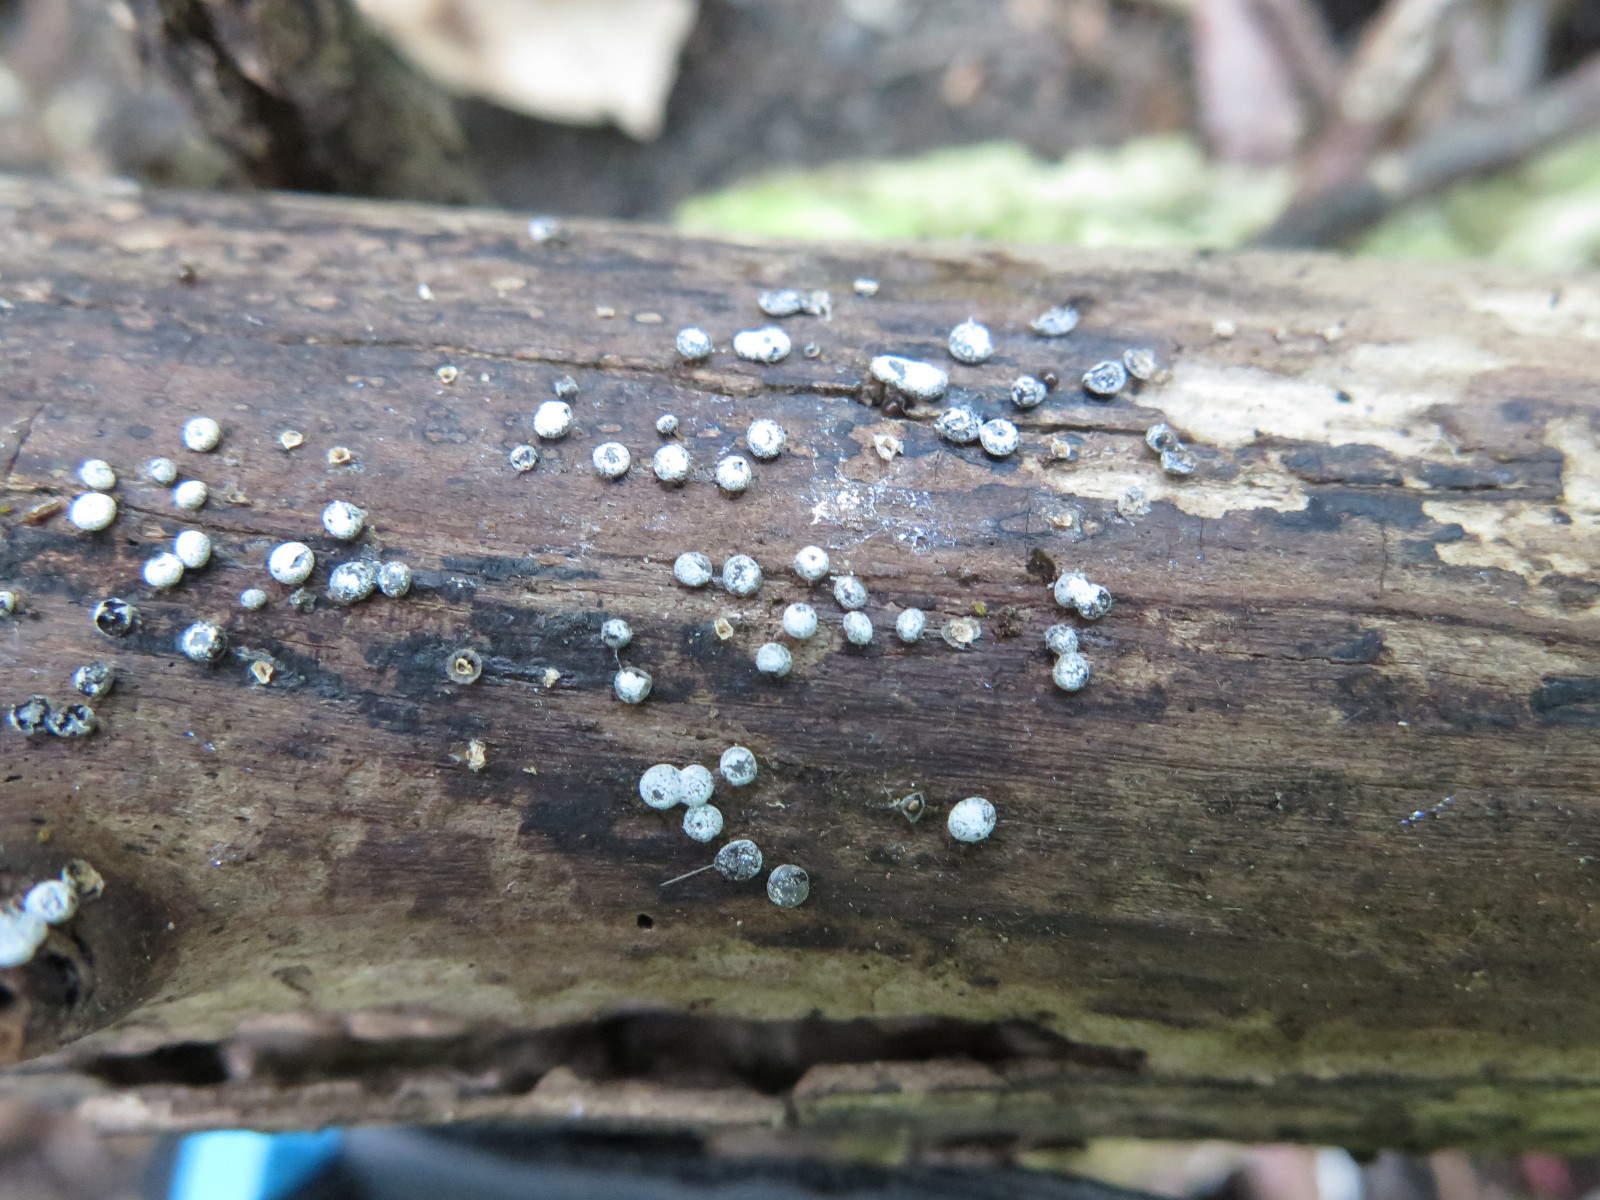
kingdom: Fungi
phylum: Ascomycota
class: Sordariomycetes
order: Sordariales
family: Lasiosphaeriaceae
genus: Lasiosphaeria
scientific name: Lasiosphaeria ovina
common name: fåre-kernesvamp
